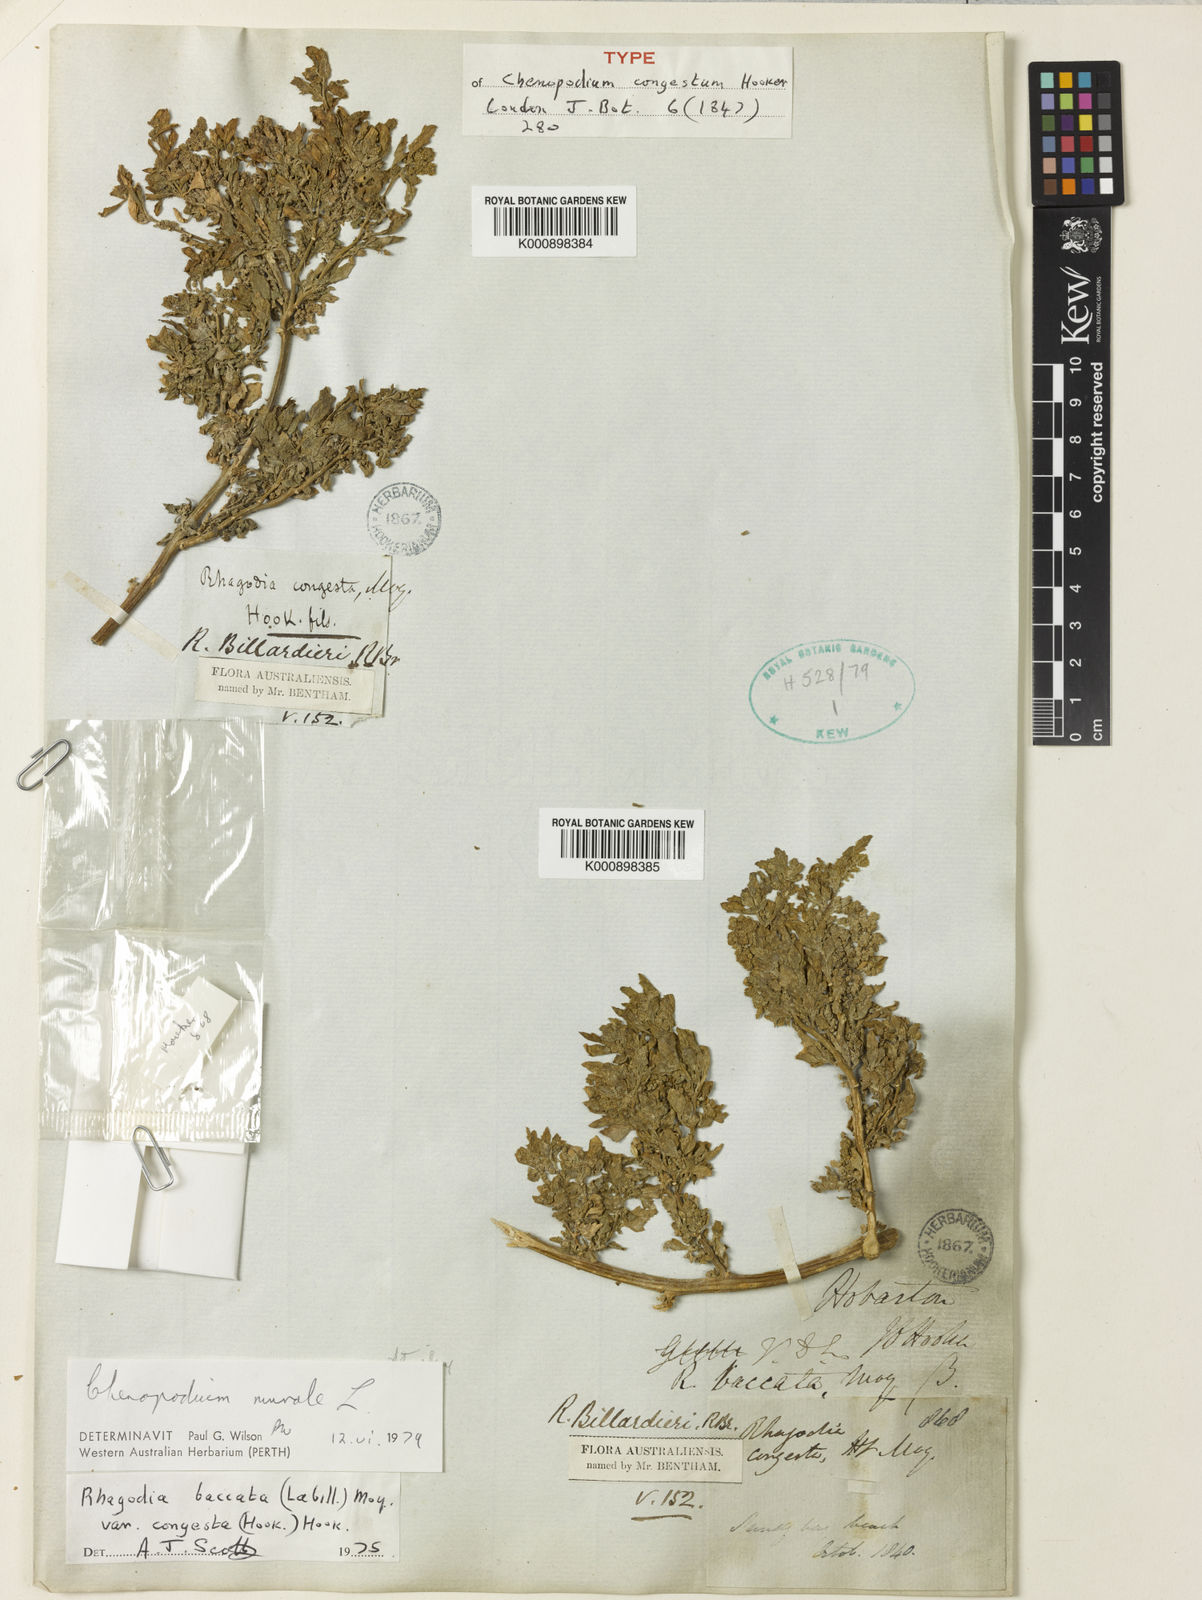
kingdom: Plantae
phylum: Tracheophyta
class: Magnoliopsida
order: Caryophyllales
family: Amaranthaceae
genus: Chenopodium
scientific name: Chenopodium baccatum
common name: Coastal-saltbush
